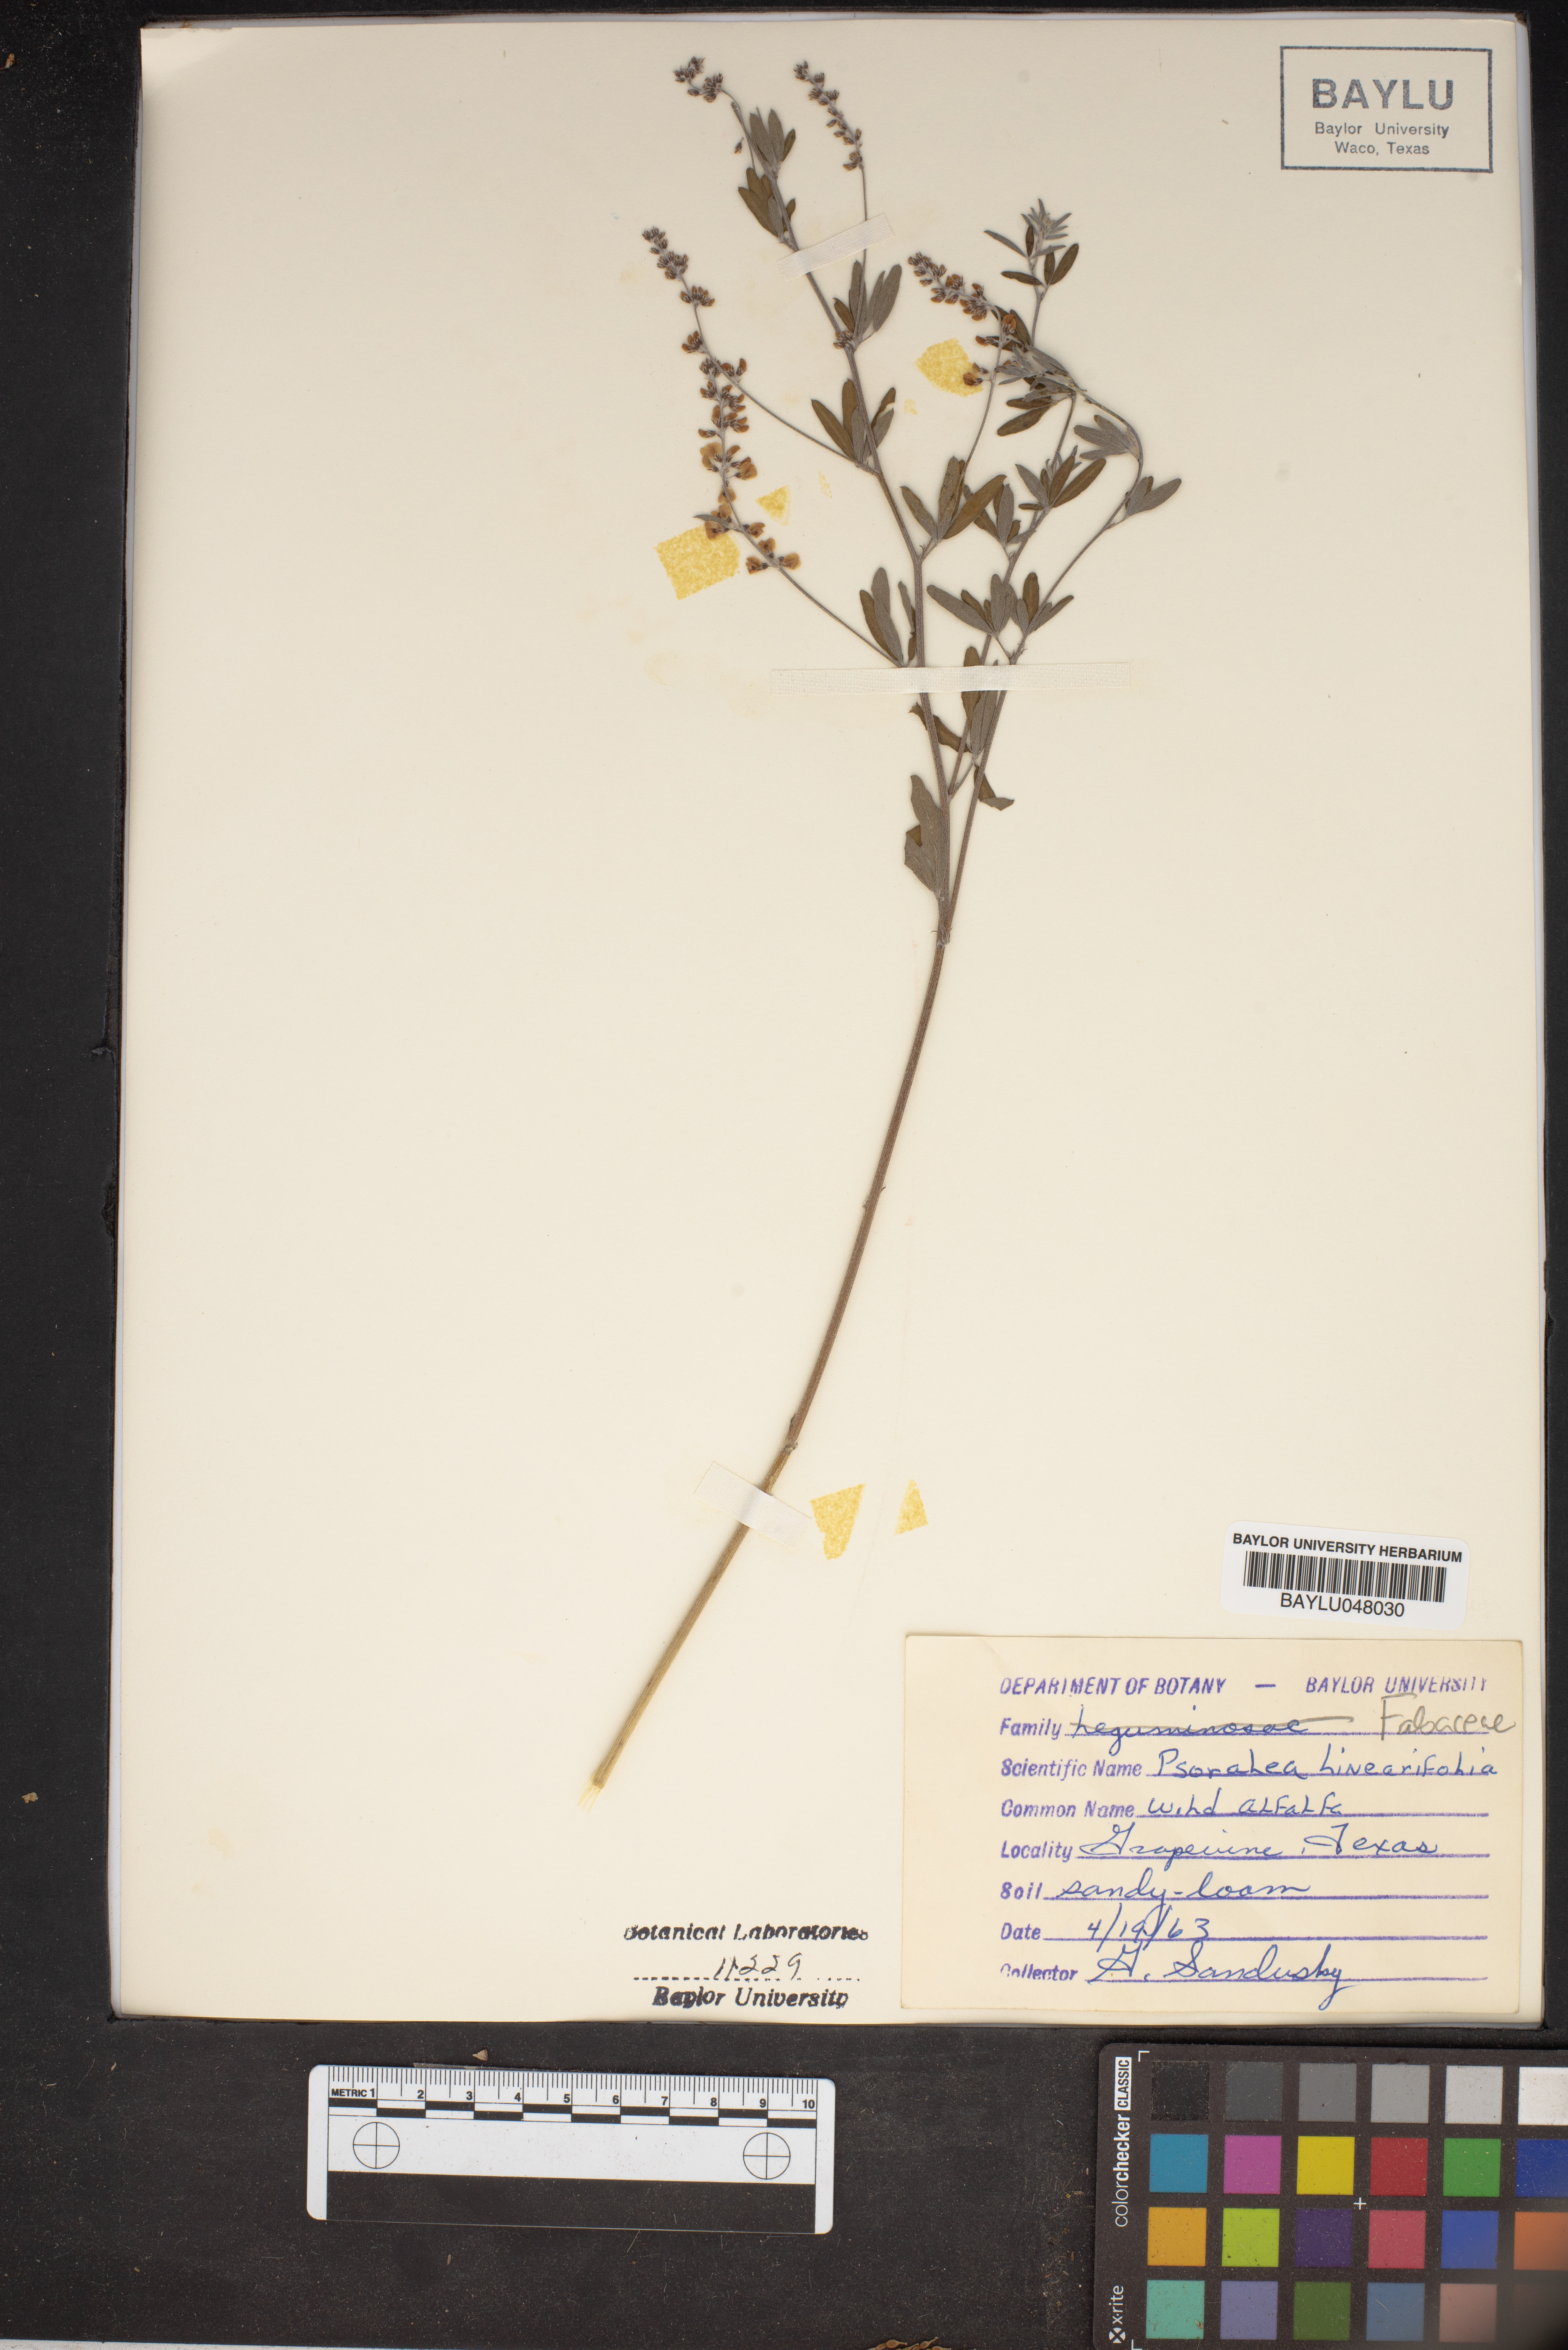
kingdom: Plantae
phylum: Tracheophyta
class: Magnoliopsida
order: Fabales
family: Fabaceae
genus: Pediomelum
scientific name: Pediomelum linearifolium
